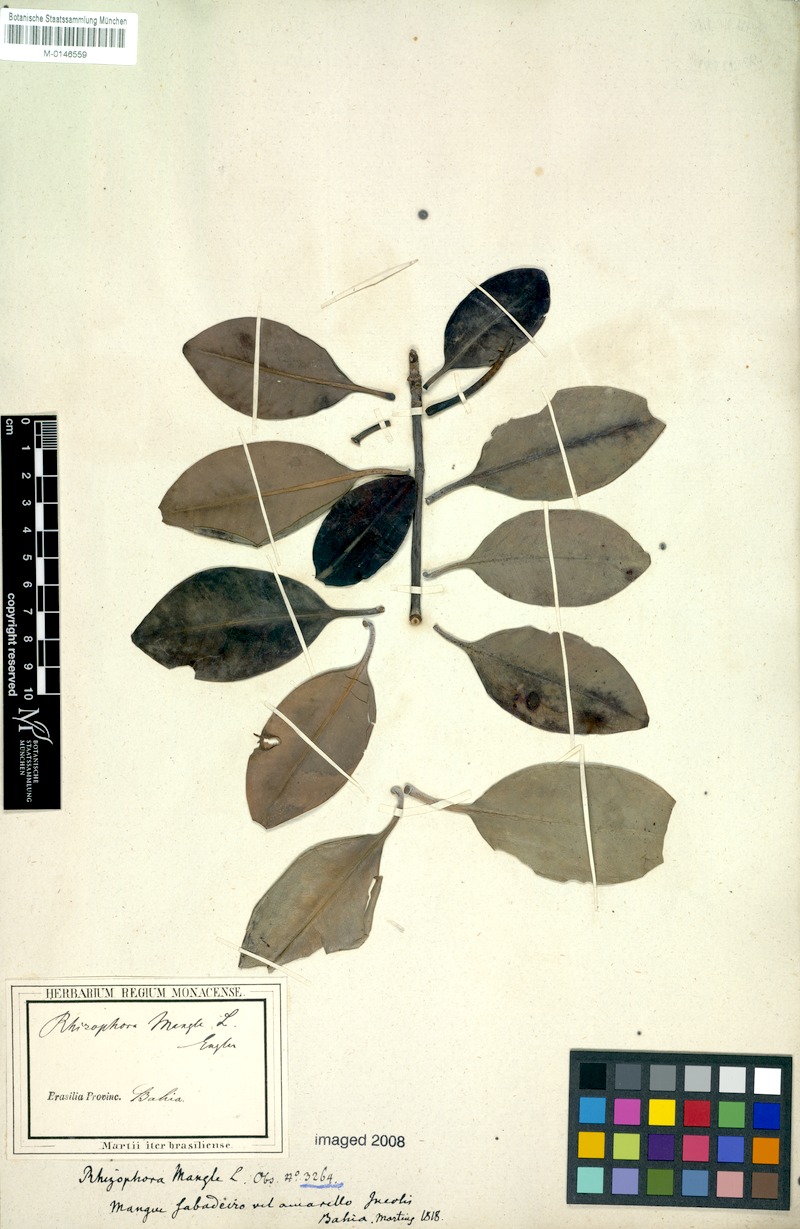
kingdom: Plantae
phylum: Tracheophyta
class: Magnoliopsida
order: Malpighiales
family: Rhizophoraceae
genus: Rhizophora
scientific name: Rhizophora mangle
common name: Red mangrove
